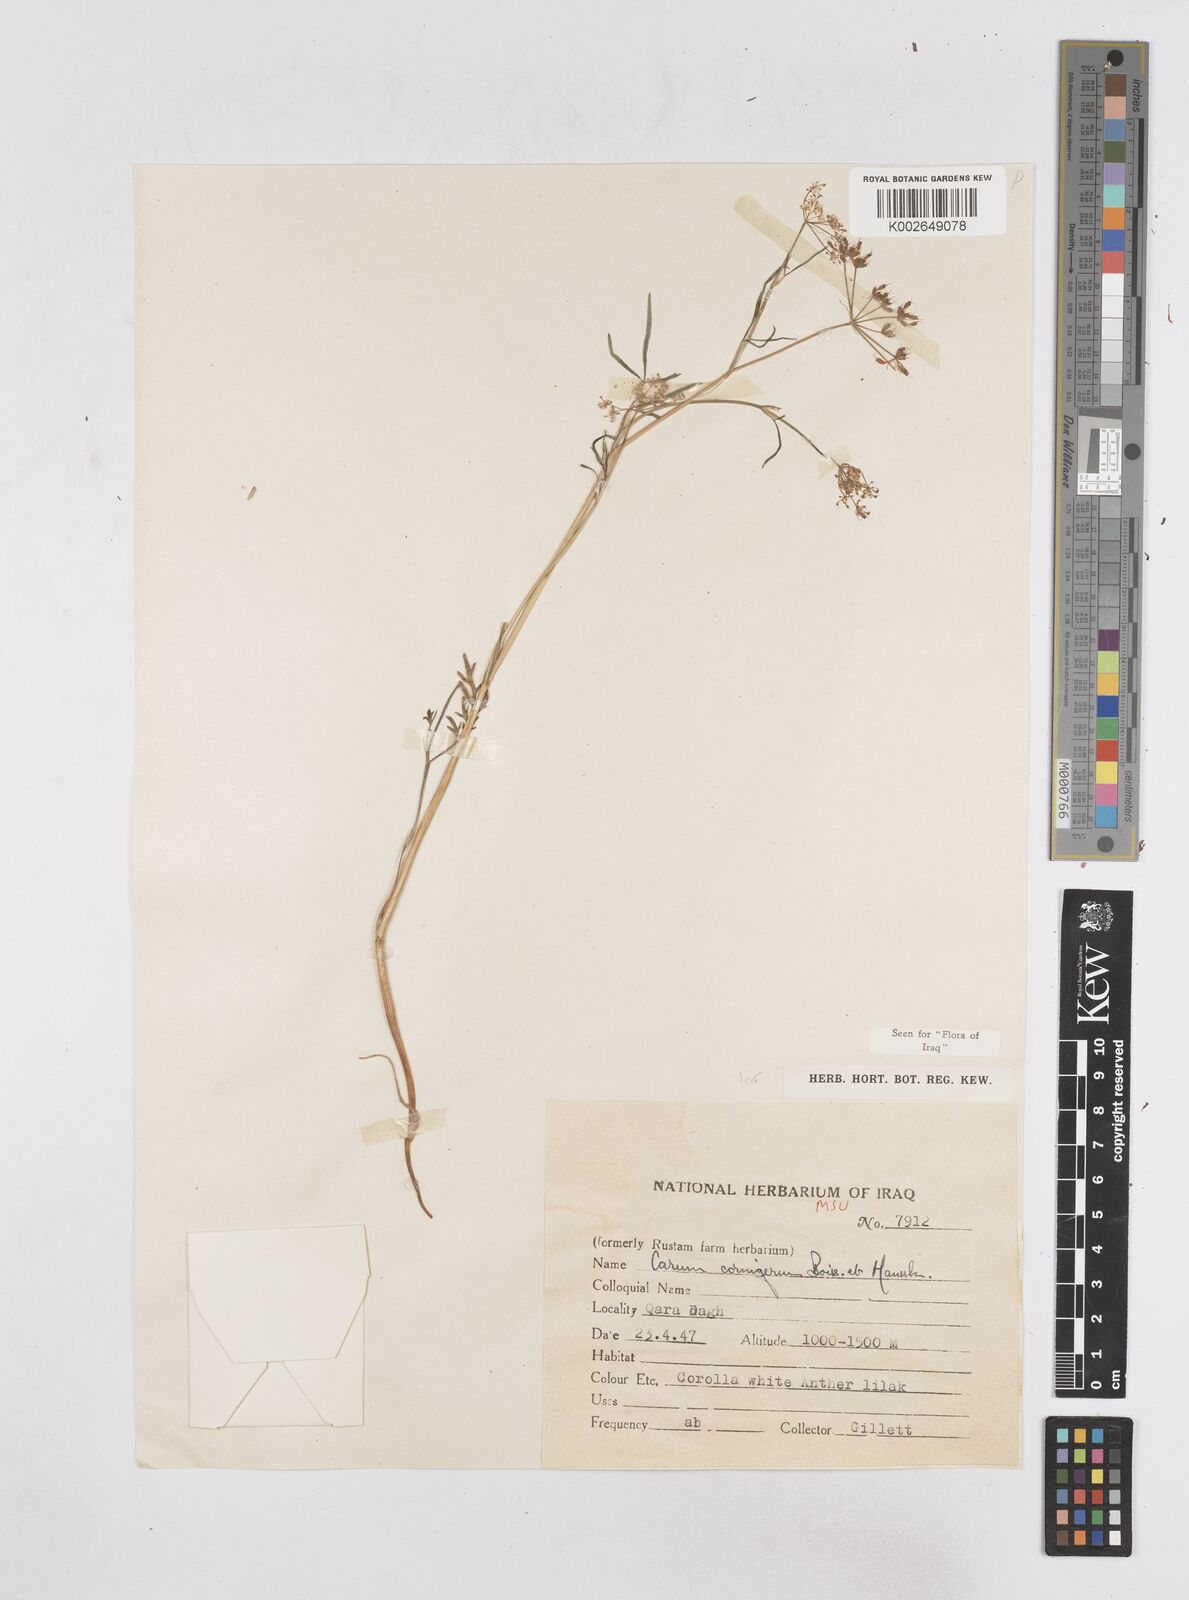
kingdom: Plantae
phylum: Tracheophyta
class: Magnoliopsida
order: Apiales
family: Apiaceae
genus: Bunium
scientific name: Bunium cornigerum
